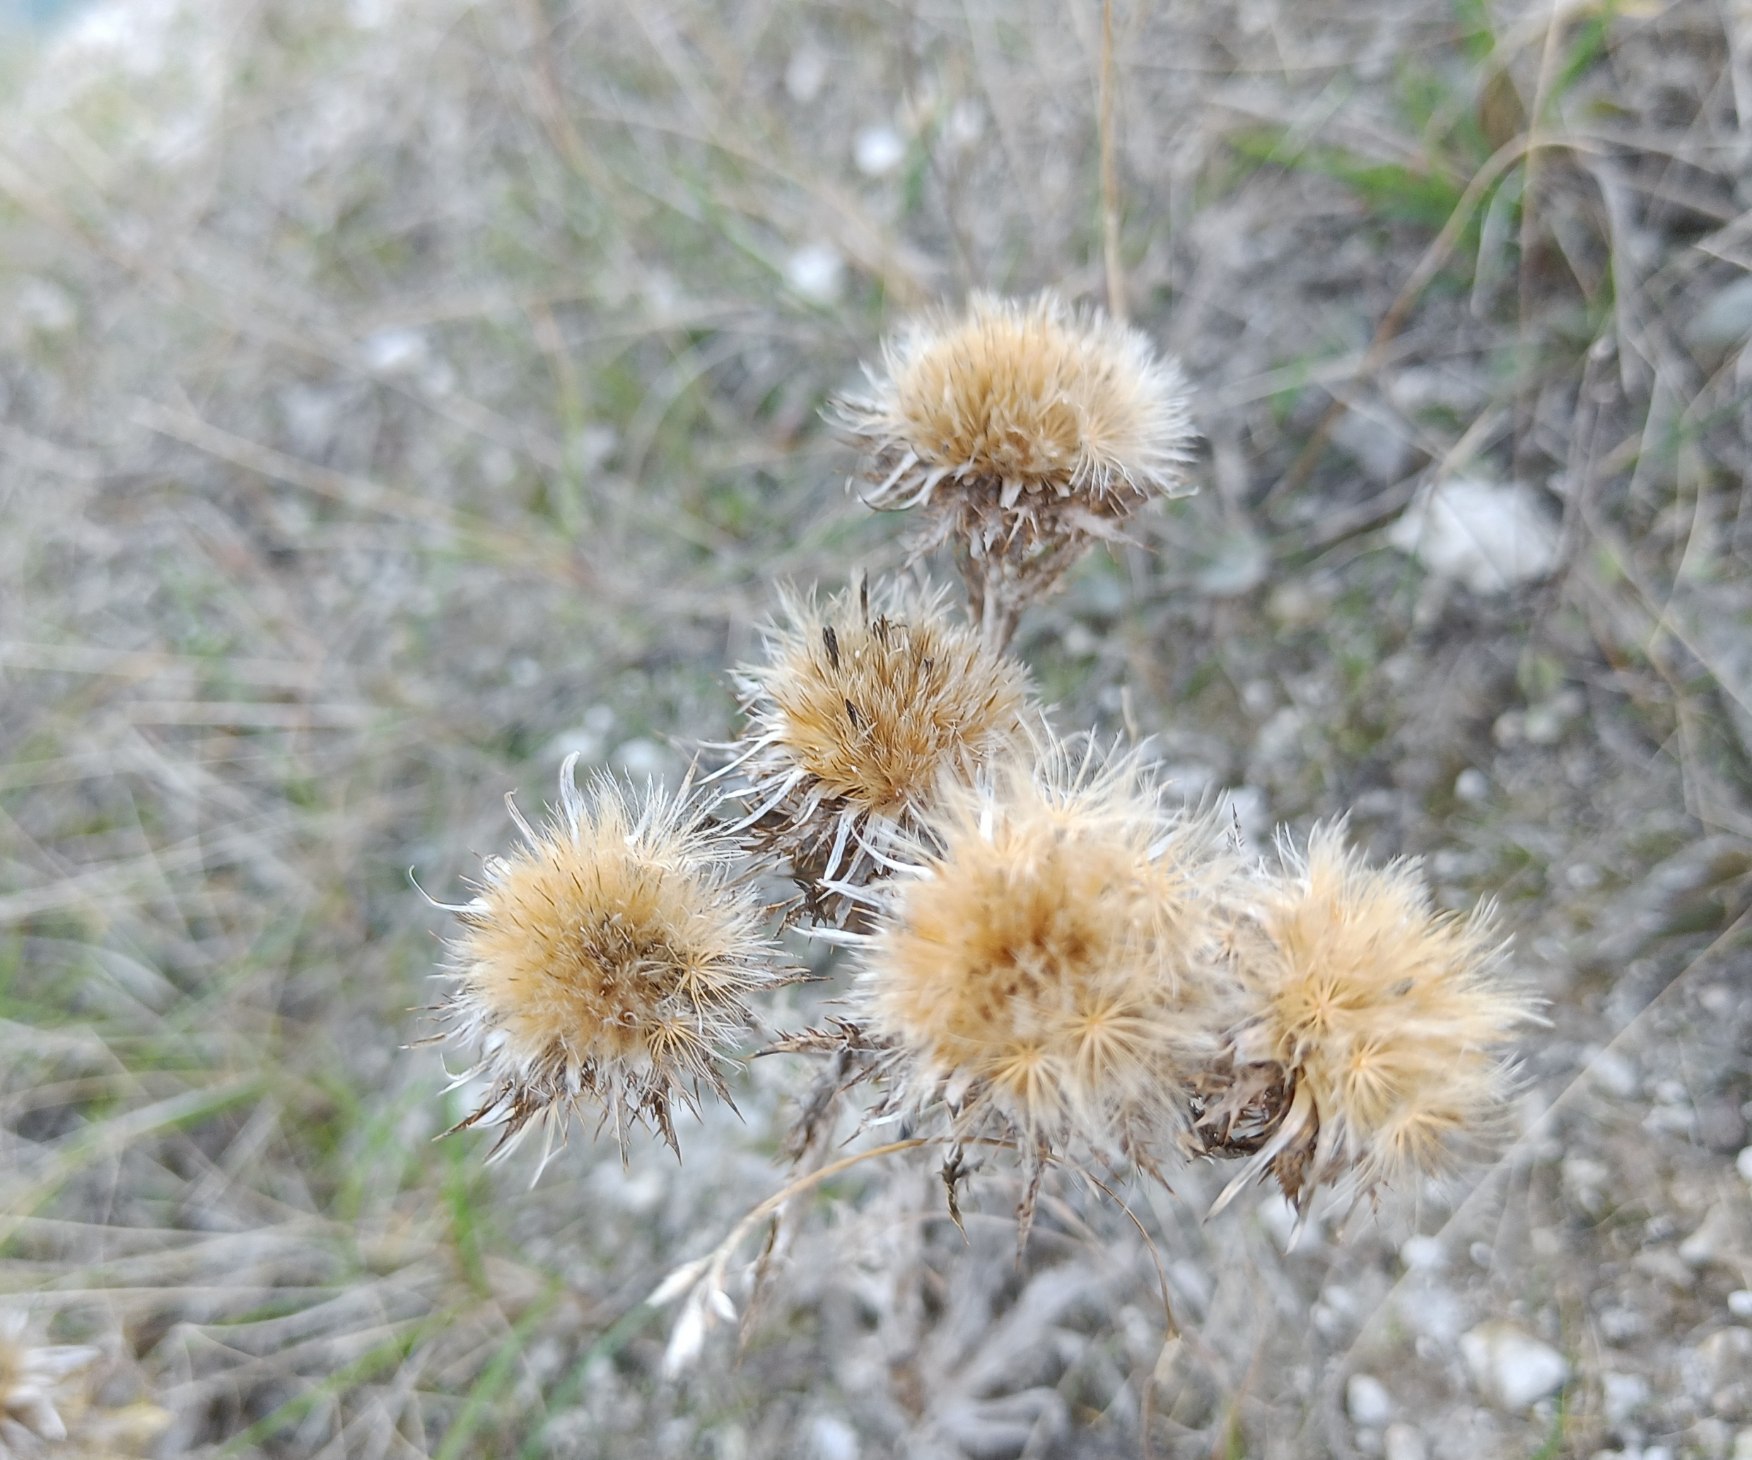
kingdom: Plantae
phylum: Tracheophyta
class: Magnoliopsida
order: Asterales
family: Asteraceae
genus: Carlina
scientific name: Carlina vulgaris
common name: Bakketidsel
